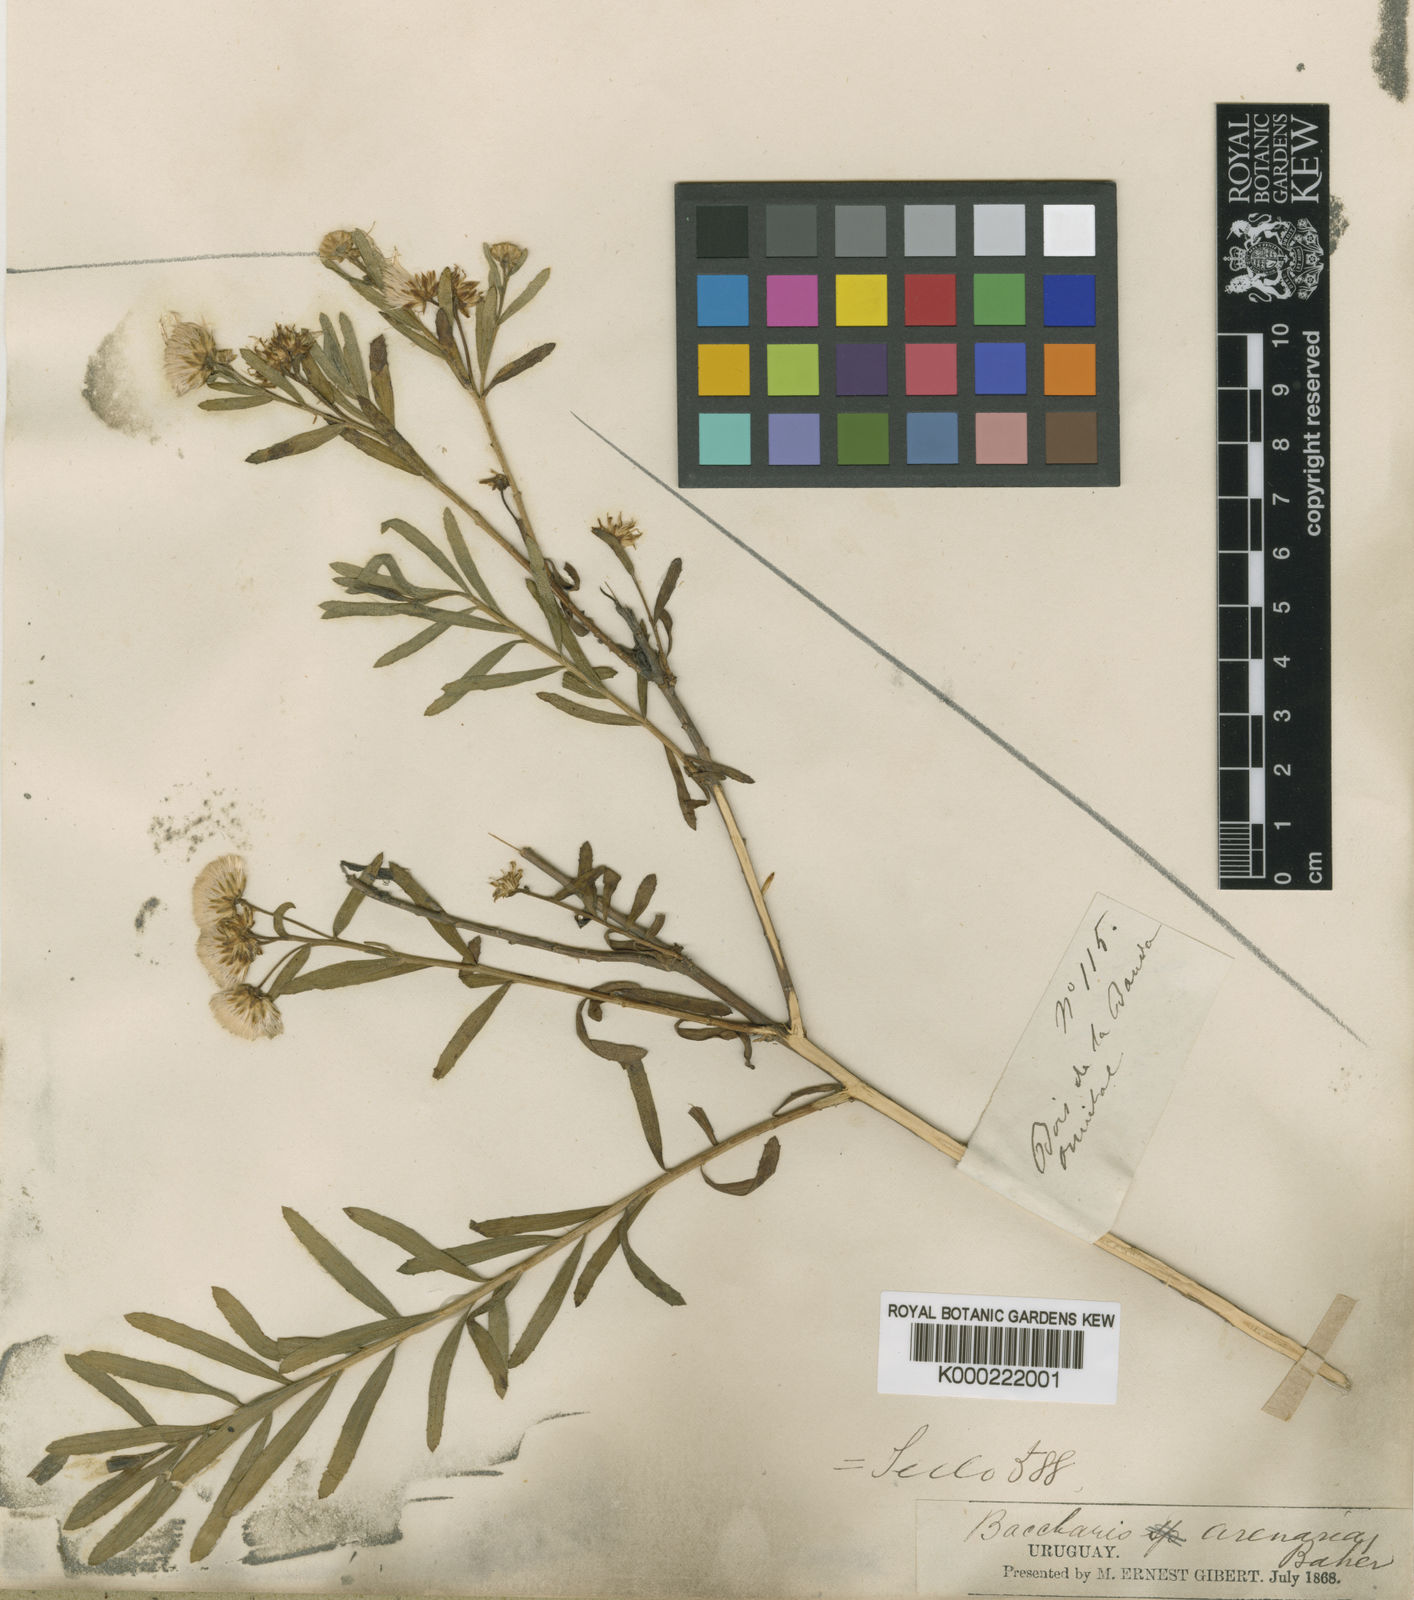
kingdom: Plantae
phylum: Tracheophyta
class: Magnoliopsida
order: Asterales
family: Asteraceae
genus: Baccharis
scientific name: Baccharis arenaria
